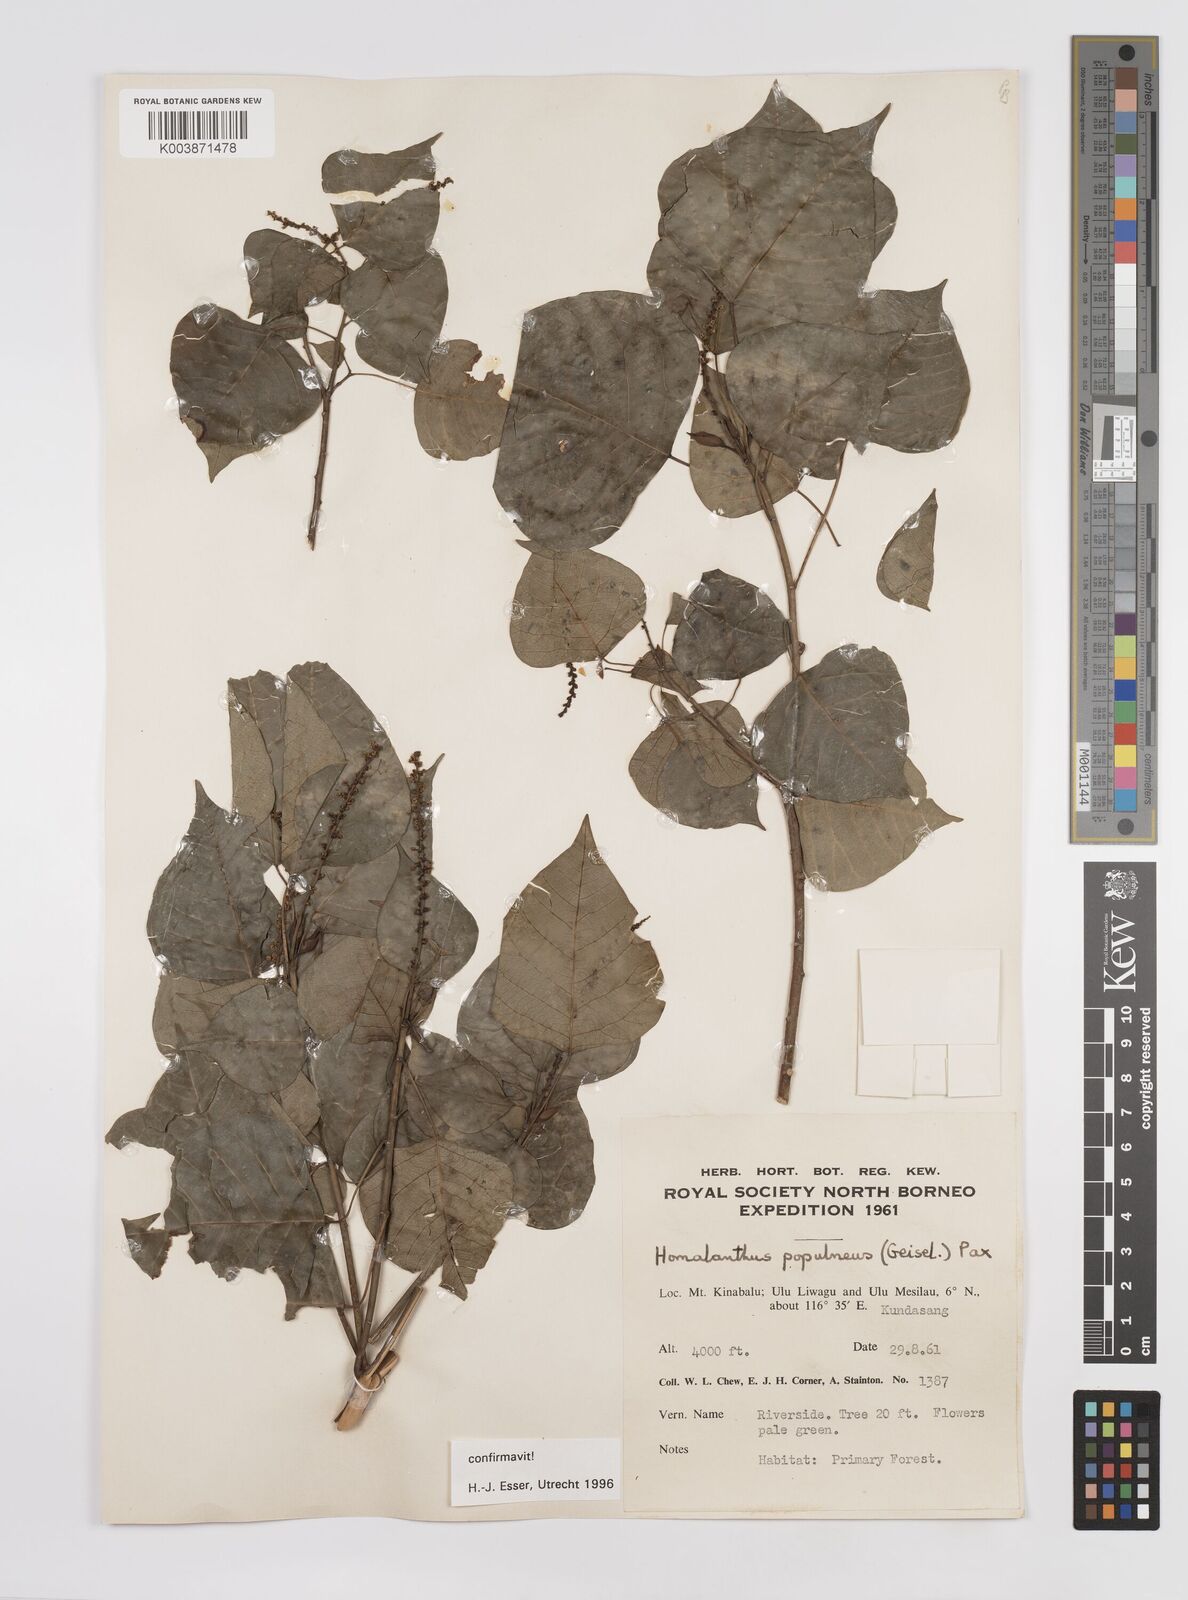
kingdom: Plantae
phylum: Tracheophyta
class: Magnoliopsida
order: Malpighiales
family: Euphorbiaceae
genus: Homalanthus
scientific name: Homalanthus populneus
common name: Spurge
